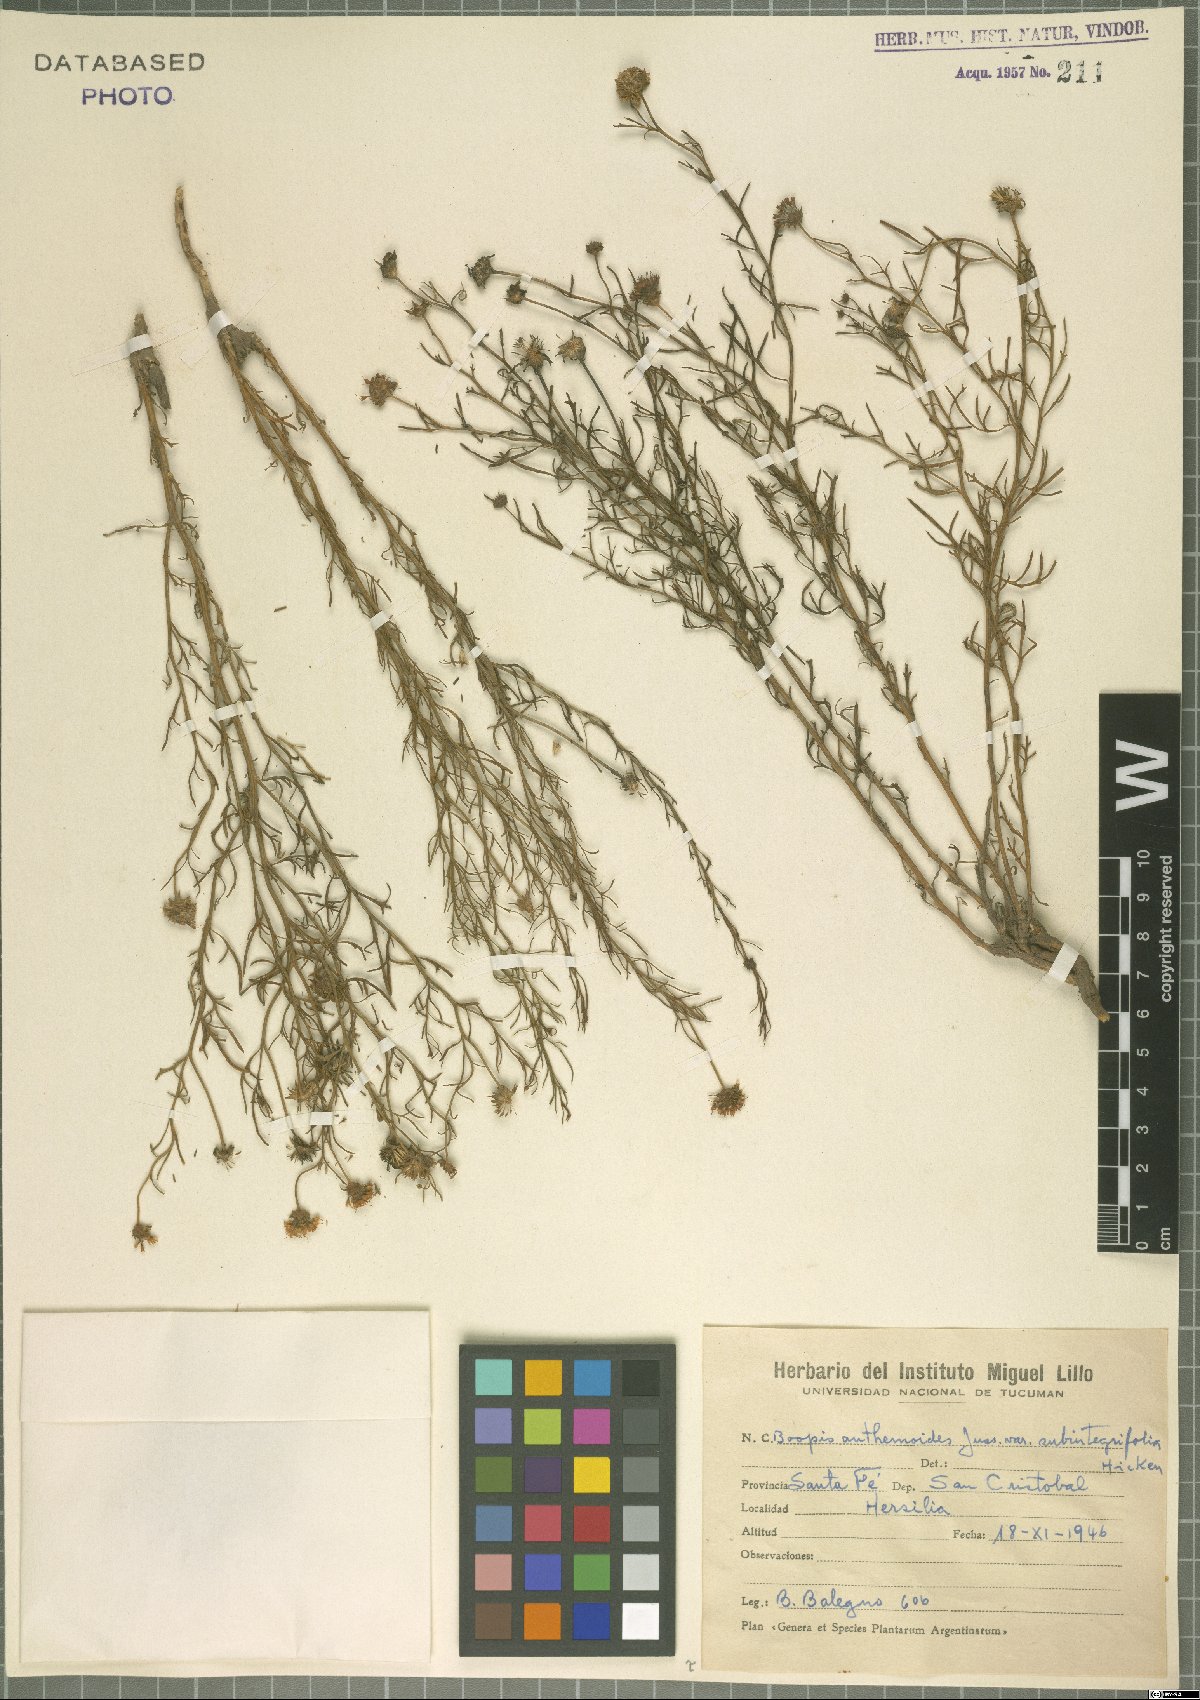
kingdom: Plantae
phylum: Tracheophyta
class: Magnoliopsida
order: Asterales
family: Calyceraceae
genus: Boopis
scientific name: Boopis anthemoides
